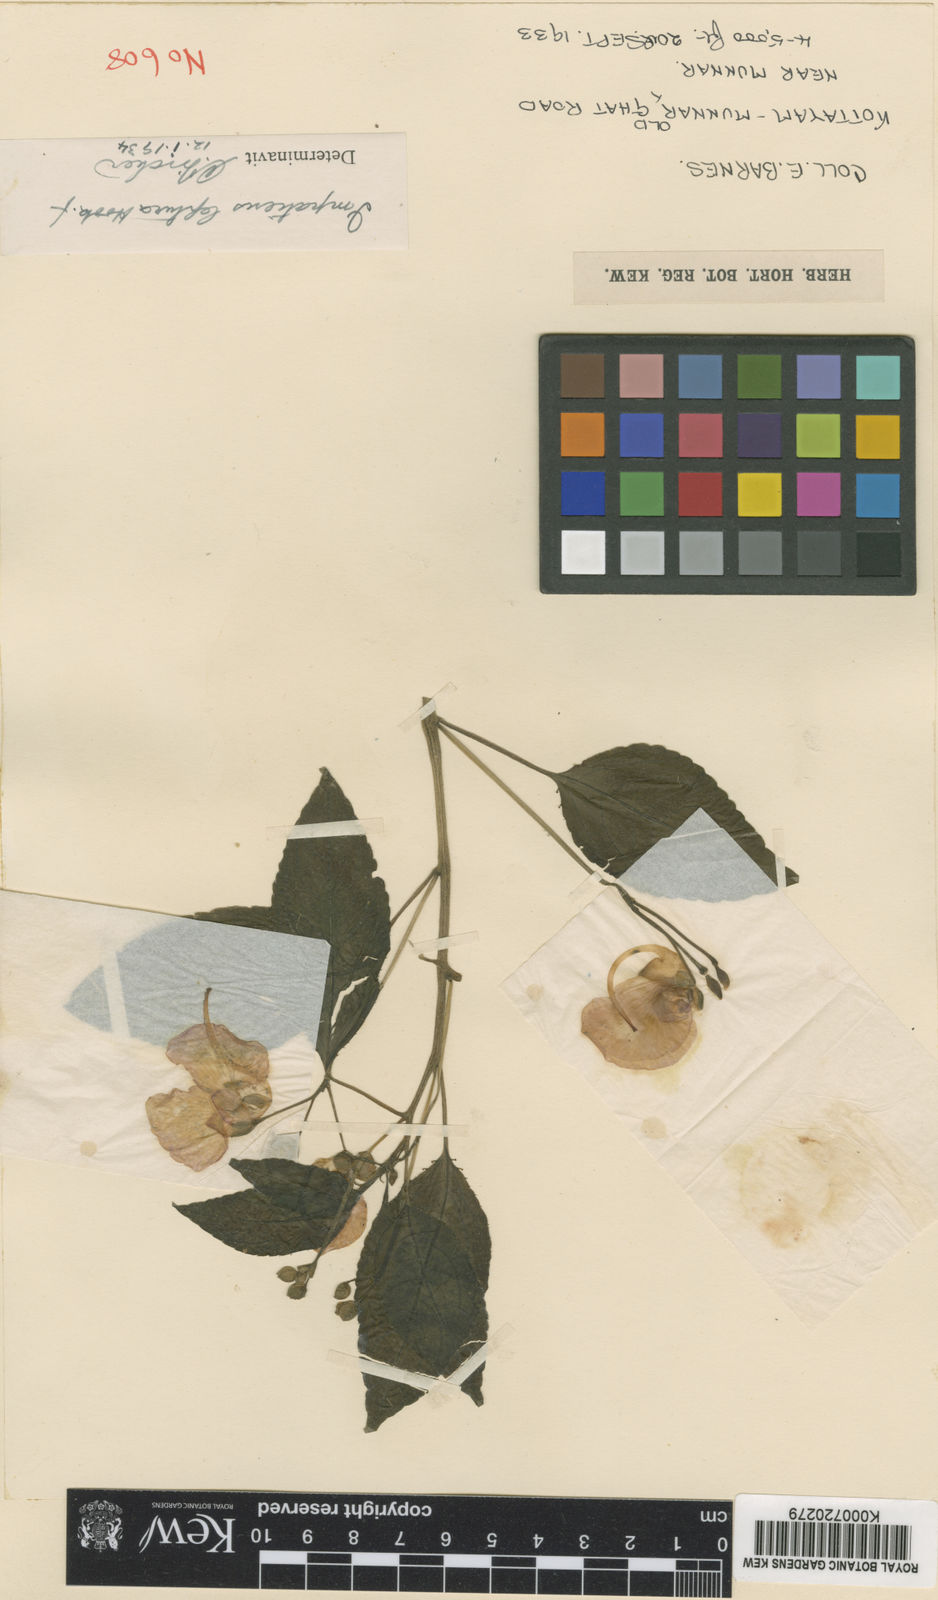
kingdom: Plantae
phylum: Tracheophyta
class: Magnoliopsida
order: Ericales
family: Balsaminaceae
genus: Impatiens
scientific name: Impatiens leptura
